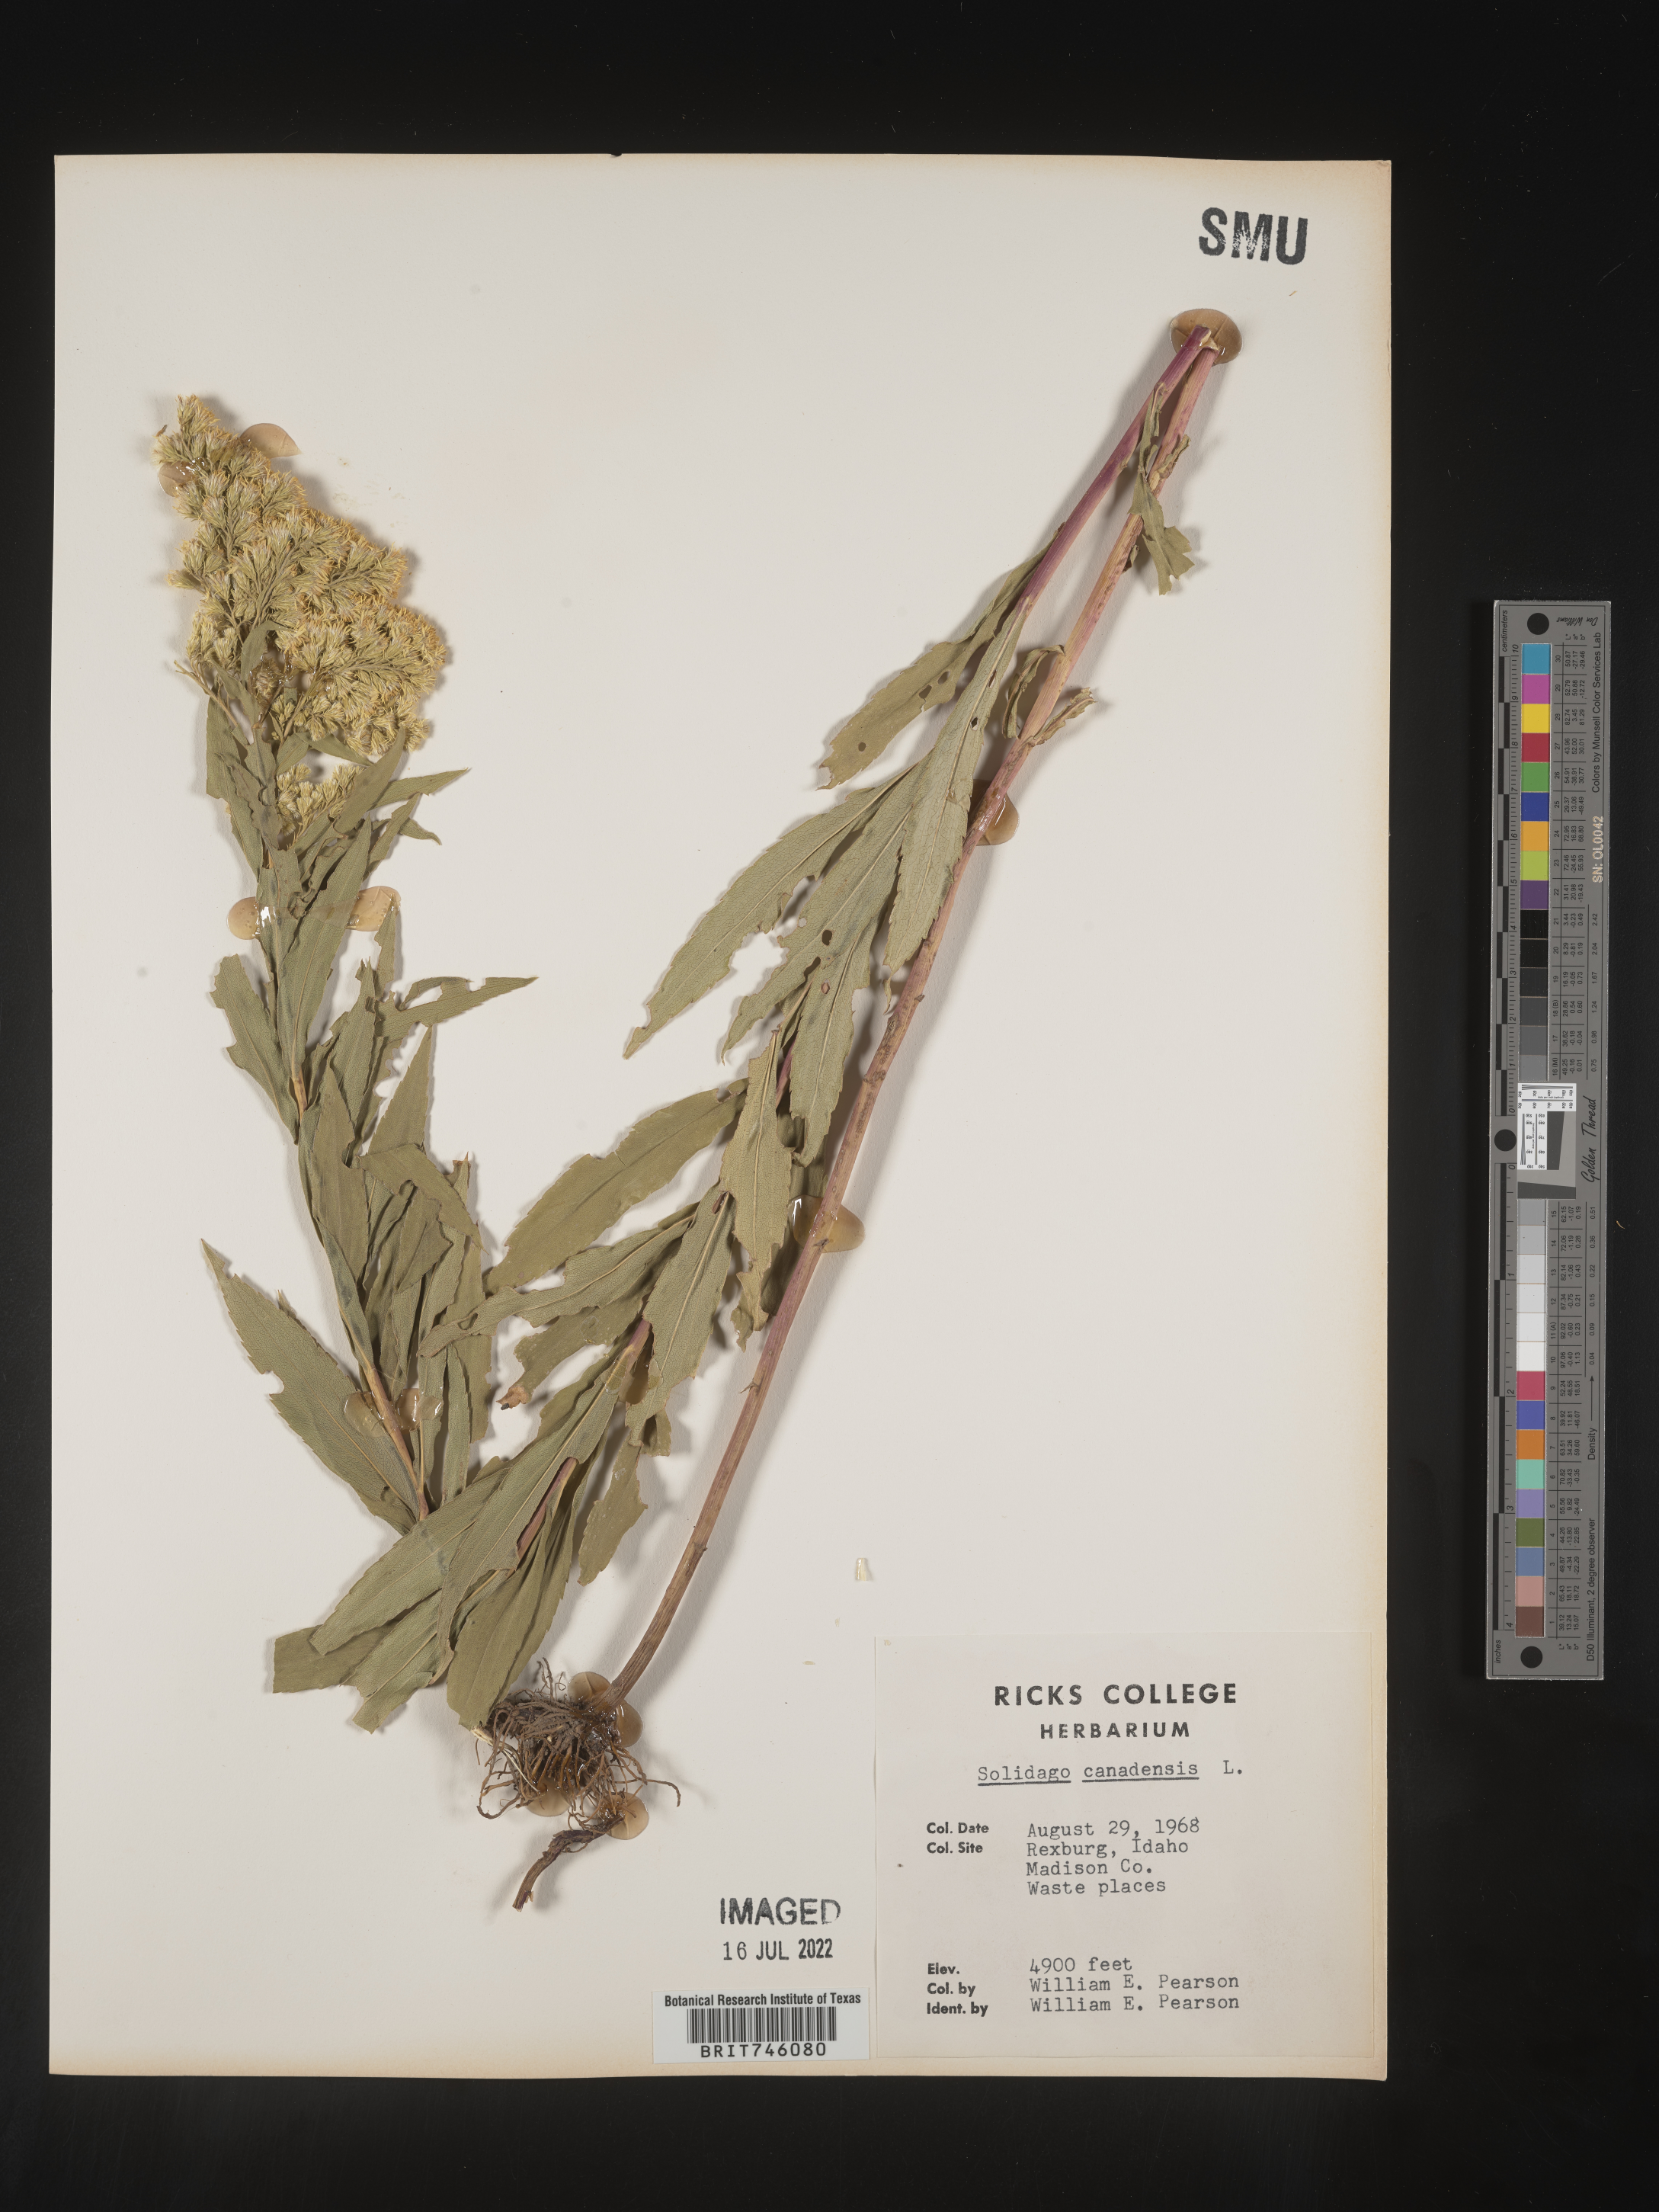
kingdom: Plantae
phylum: Tracheophyta
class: Magnoliopsida
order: Asterales
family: Asteraceae
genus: Solidago
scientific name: Solidago canadensis
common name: Canada goldenrod
